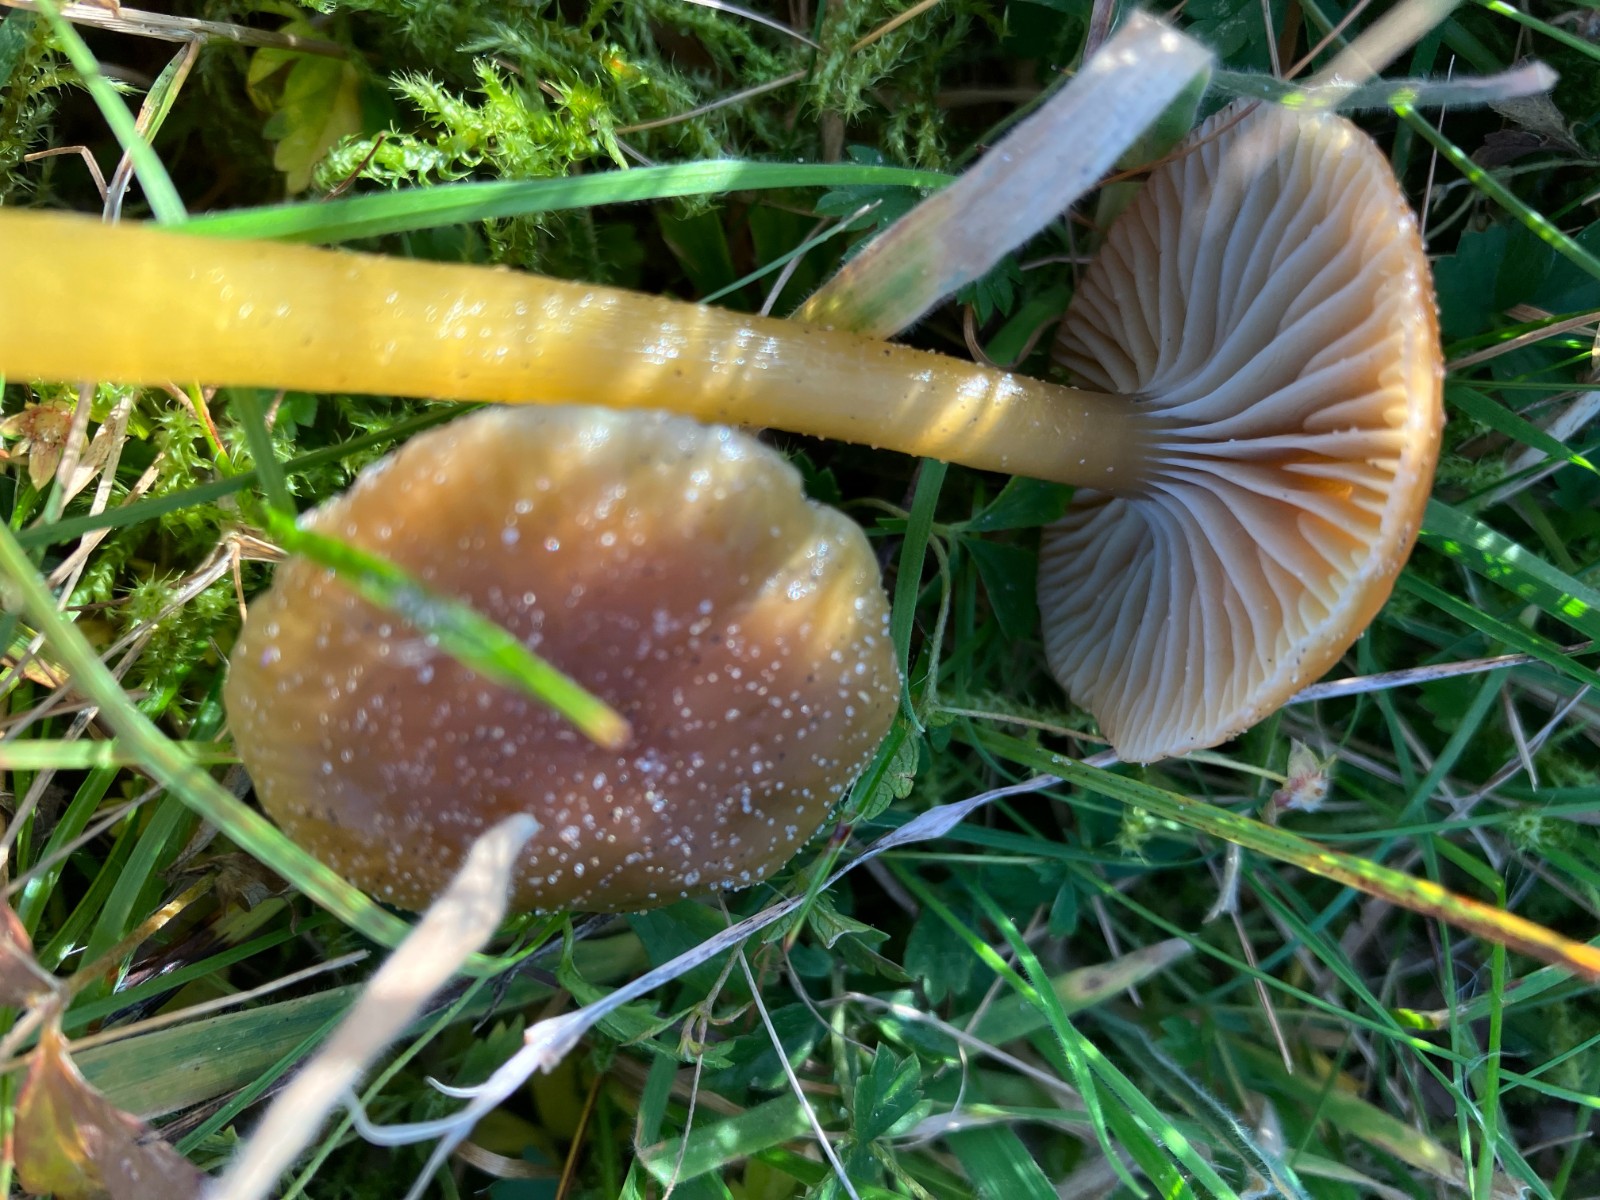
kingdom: Fungi
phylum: Basidiomycota
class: Agaricomycetes
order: Agaricales
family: Hygrophoraceae
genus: Gliophorus
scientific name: Gliophorus laetus
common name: brusk-vokshat
